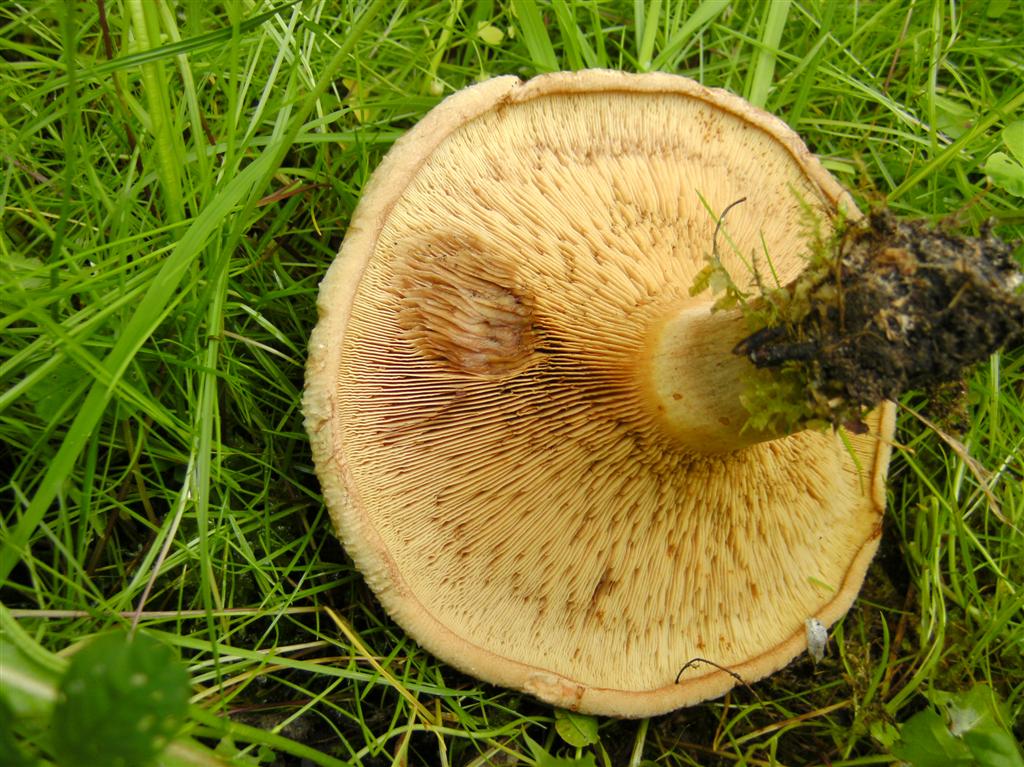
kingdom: Fungi
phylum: Basidiomycota
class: Agaricomycetes
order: Boletales
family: Paxillaceae
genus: Paxillus
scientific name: Paxillus involutus
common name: almindelig netbladhat
